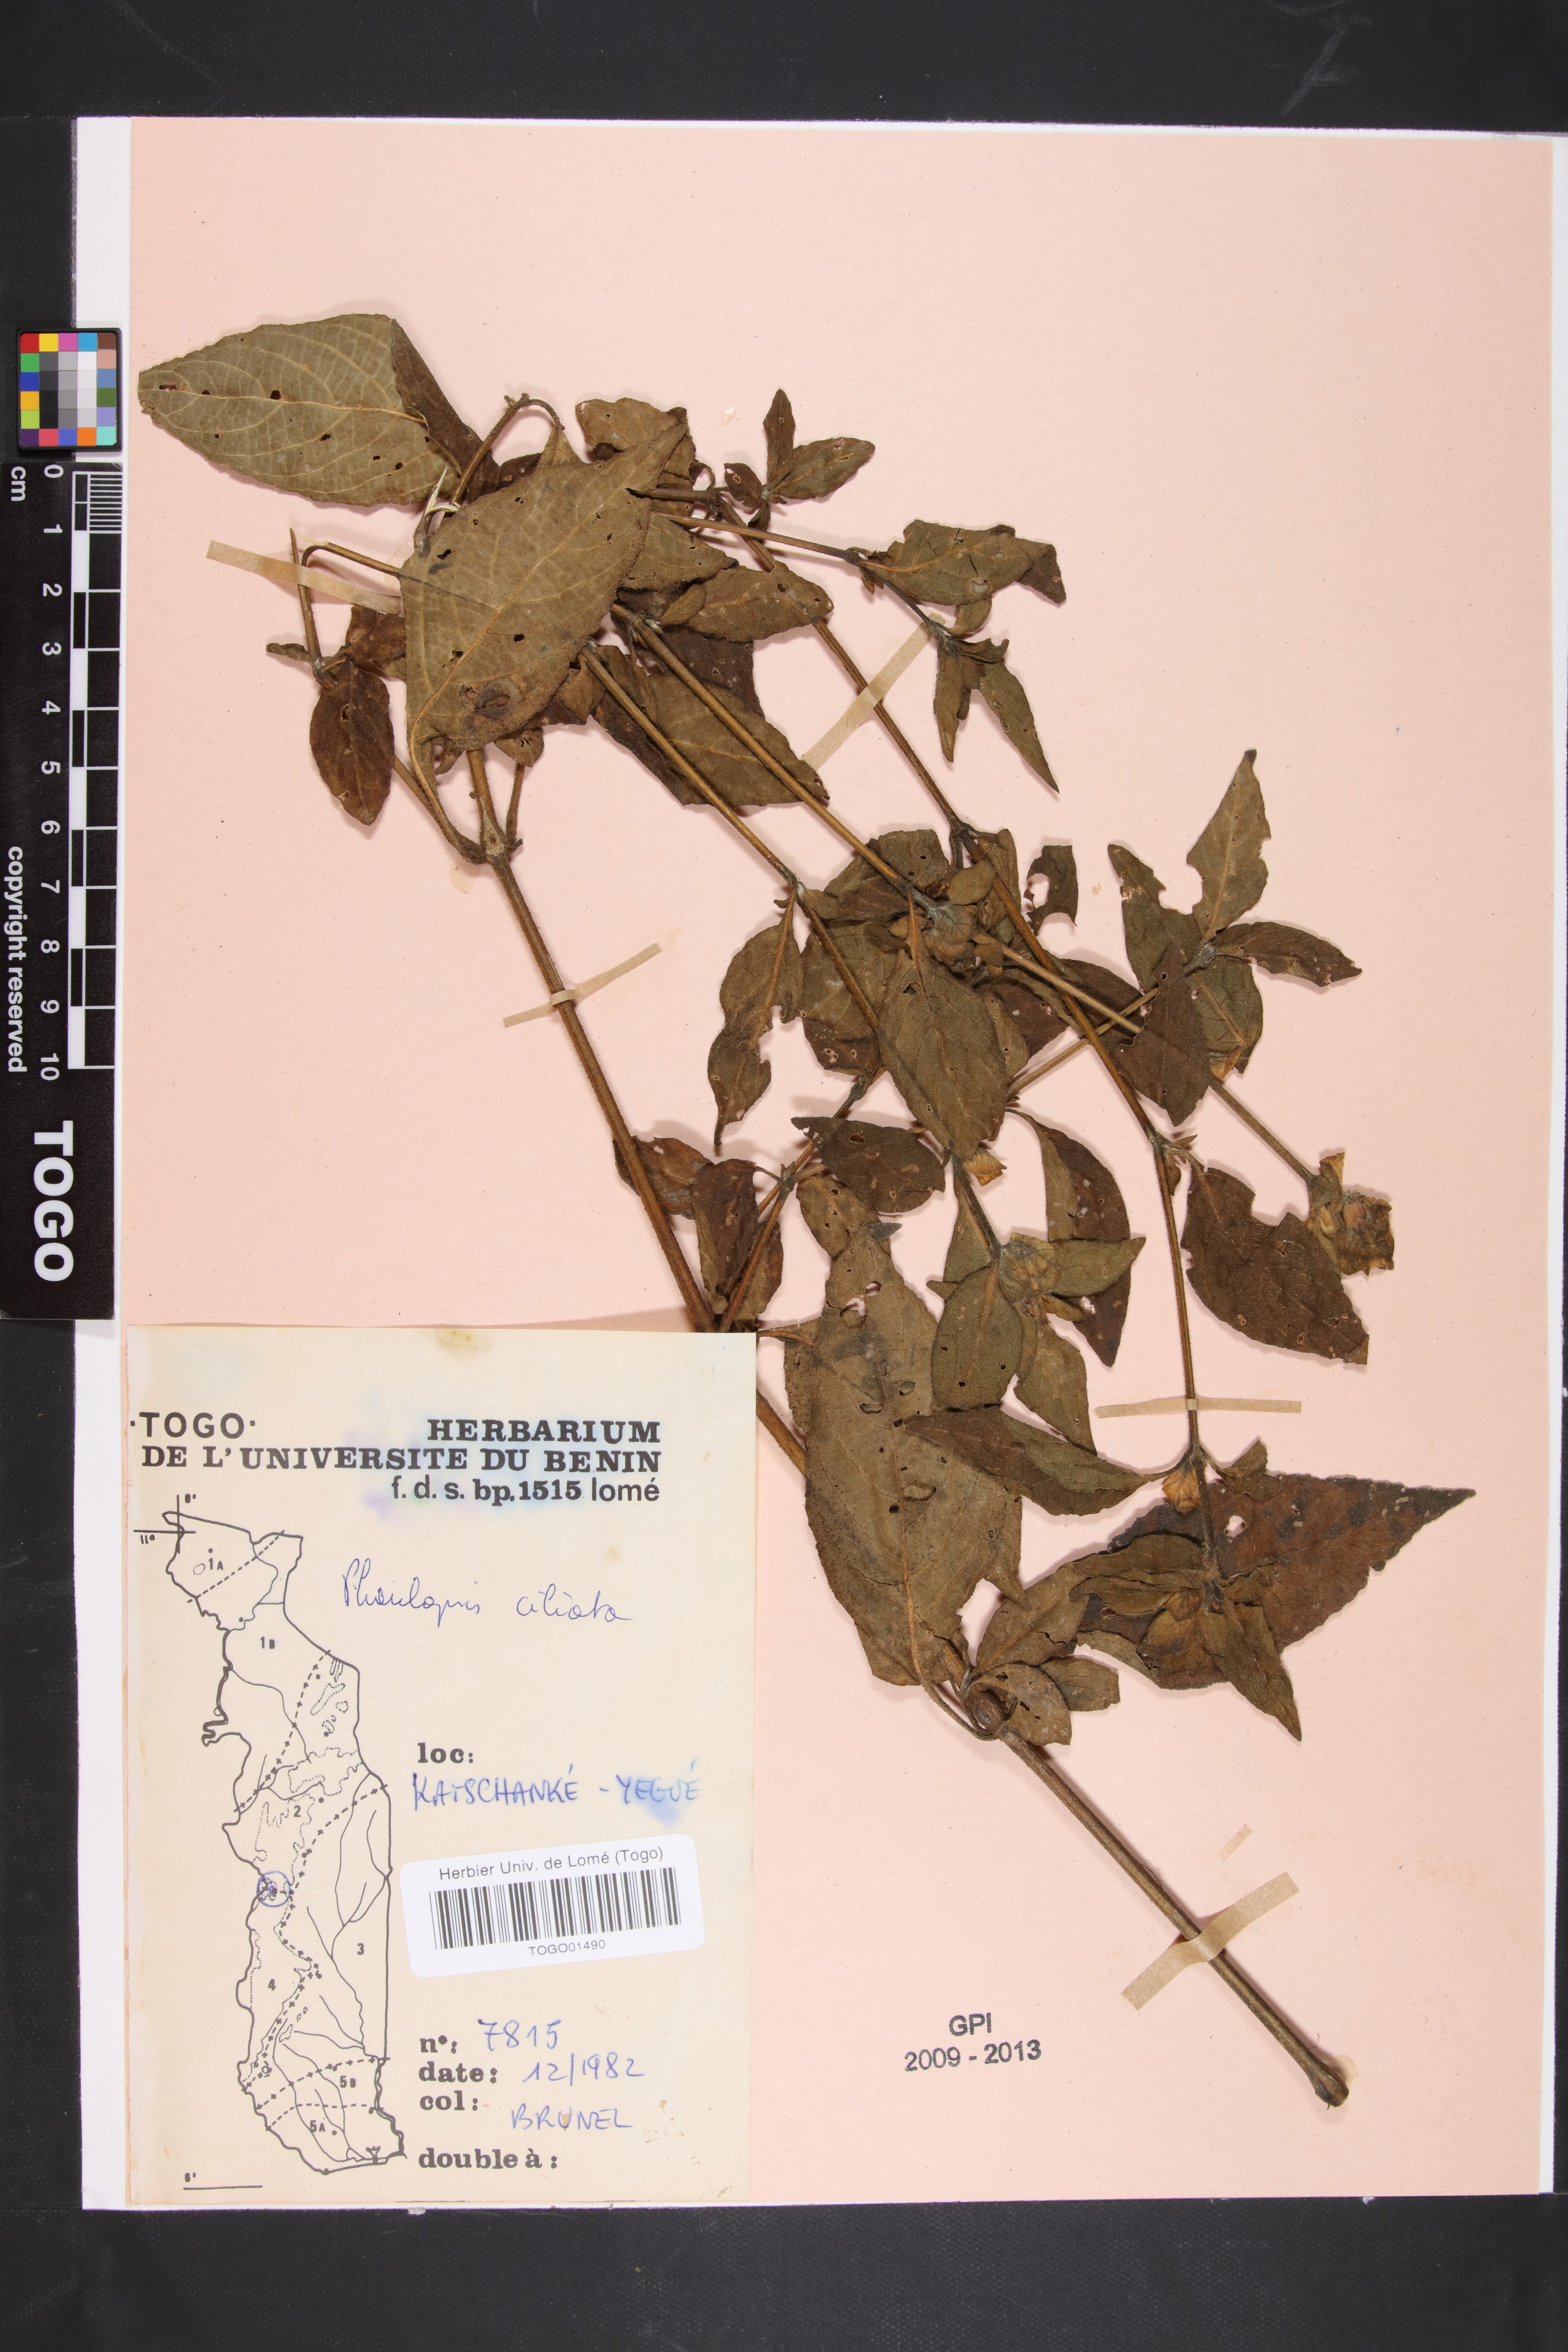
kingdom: Plantae
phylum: Tracheophyta
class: Magnoliopsida
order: Lamiales
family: Acanthaceae
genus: Phaulopsis
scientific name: Phaulopsis ciliata
